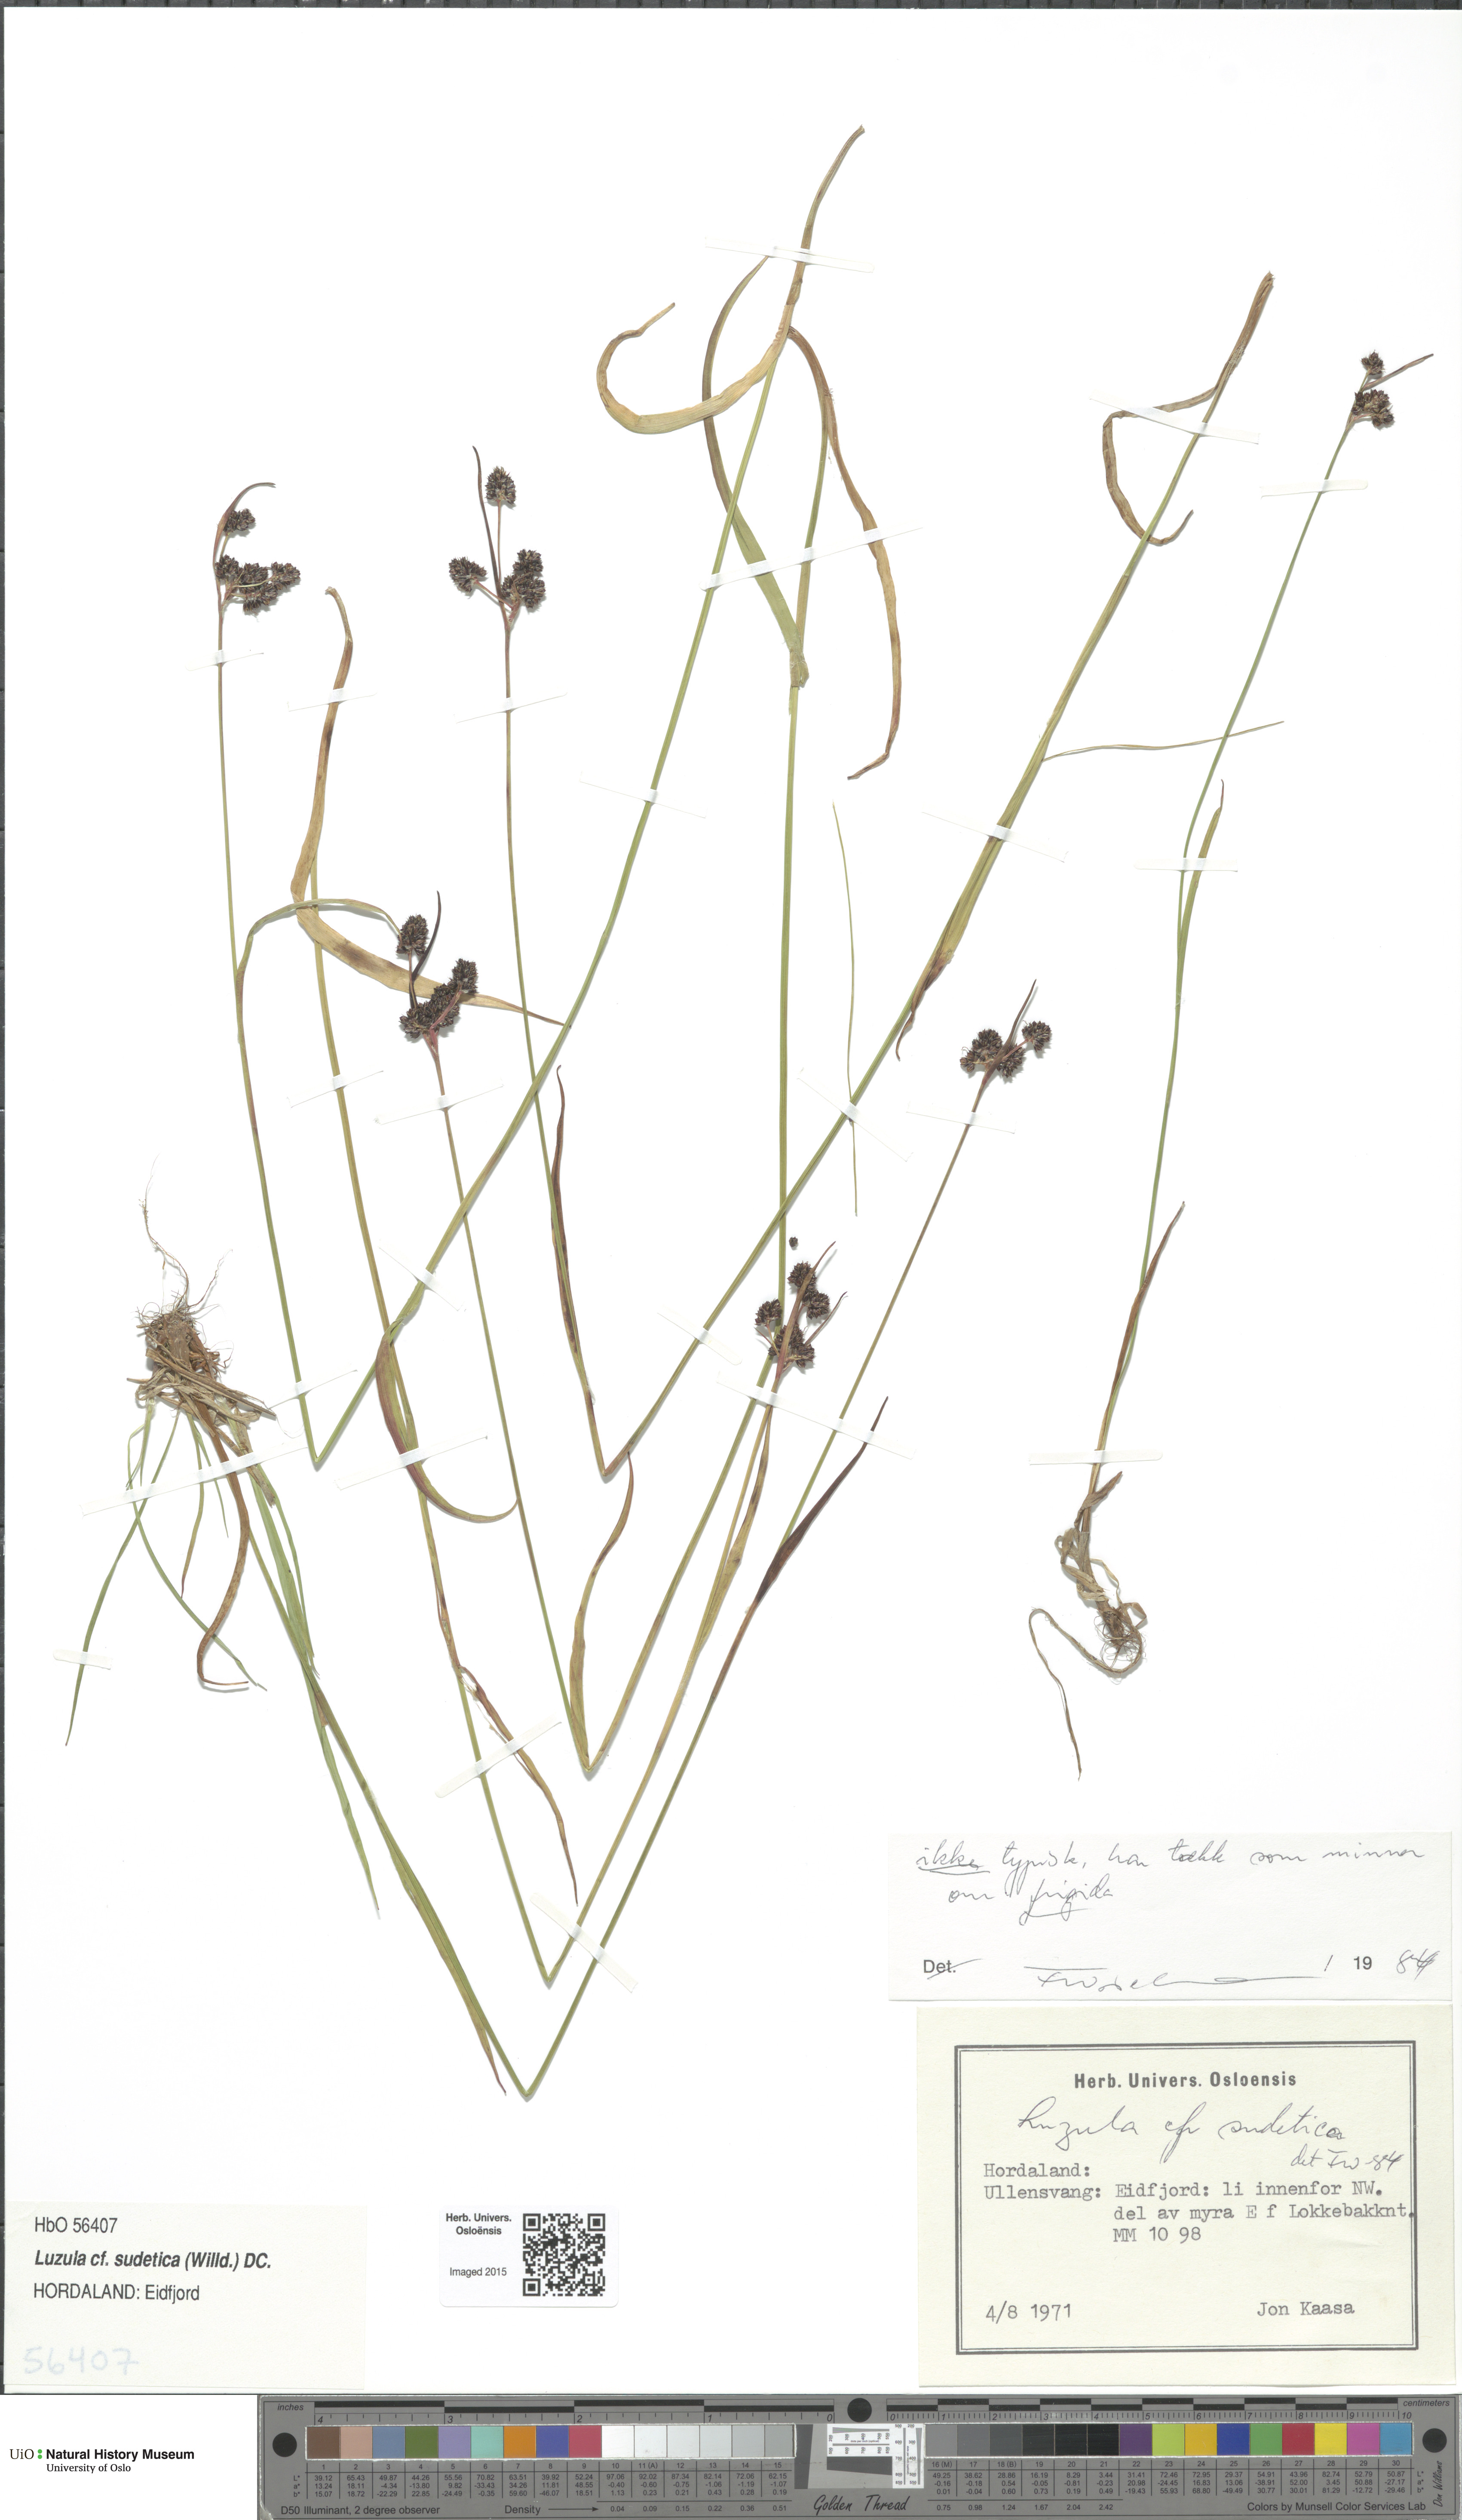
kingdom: Plantae
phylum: Tracheophyta
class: Liliopsida
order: Poales
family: Juncaceae
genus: Luzula
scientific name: Luzula sudetica
